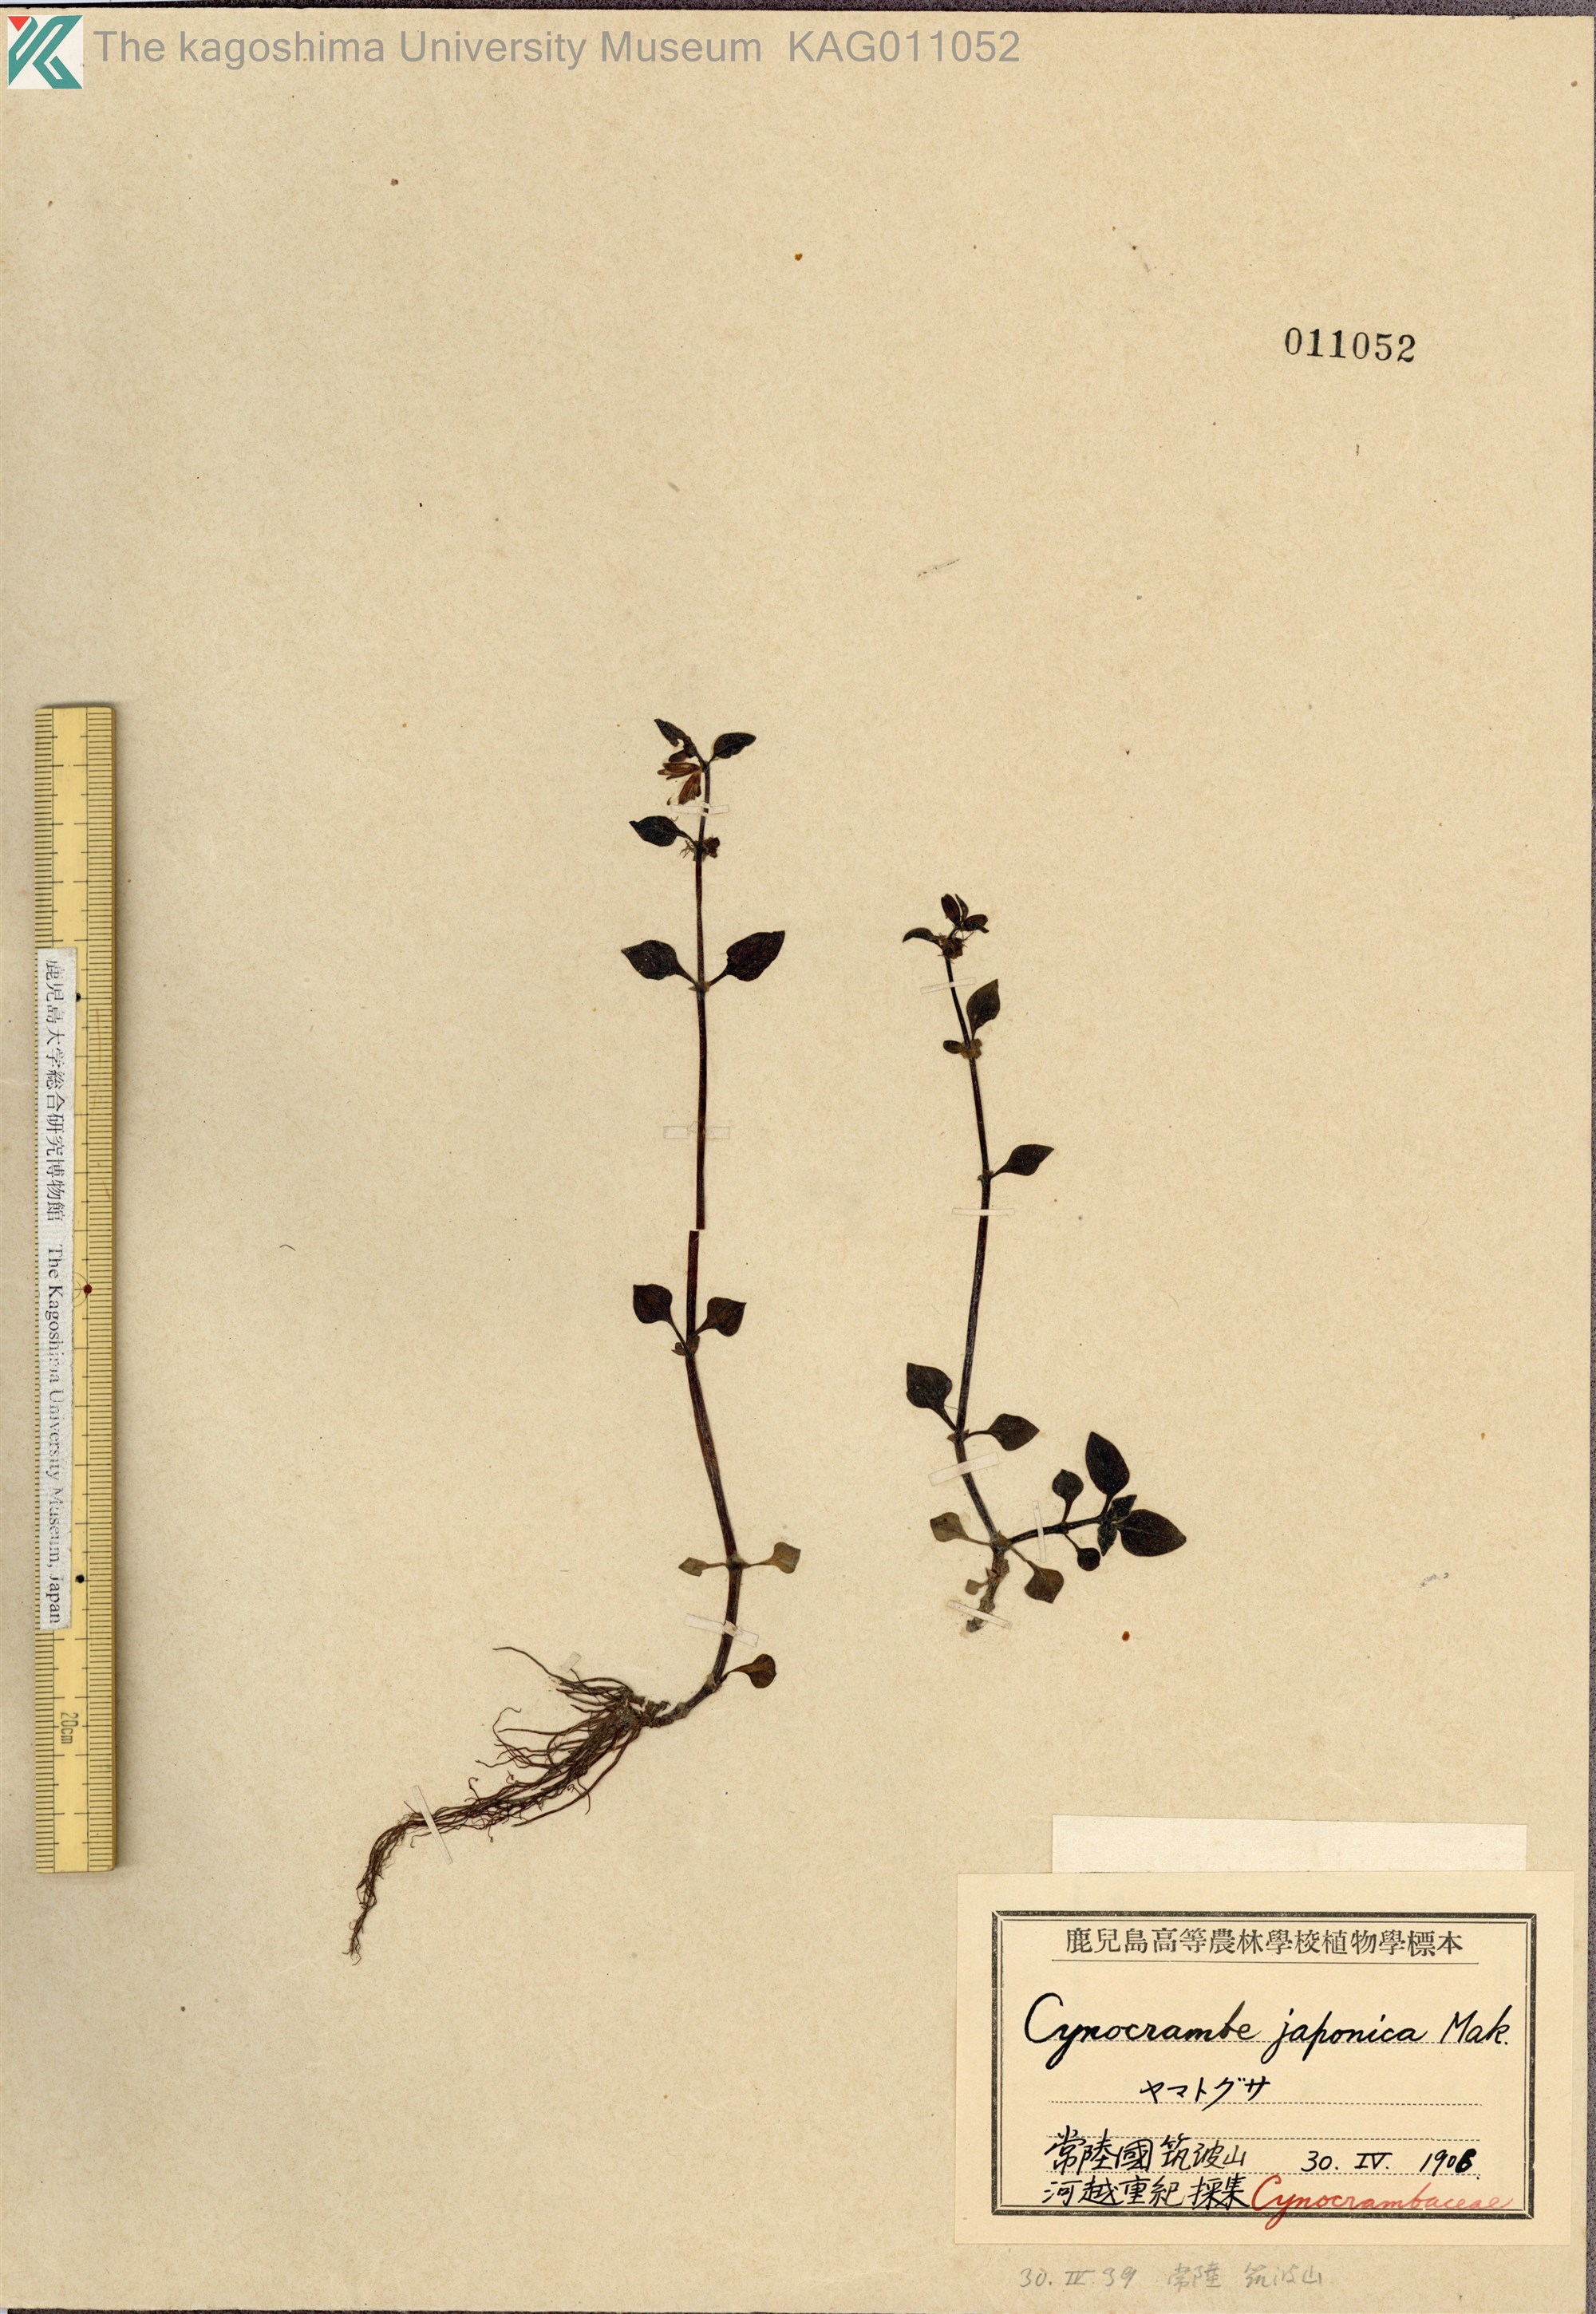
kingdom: Plantae
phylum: Tracheophyta
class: Magnoliopsida
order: Gentianales
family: Rubiaceae
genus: Theligonum
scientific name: Theligonum japonicum
